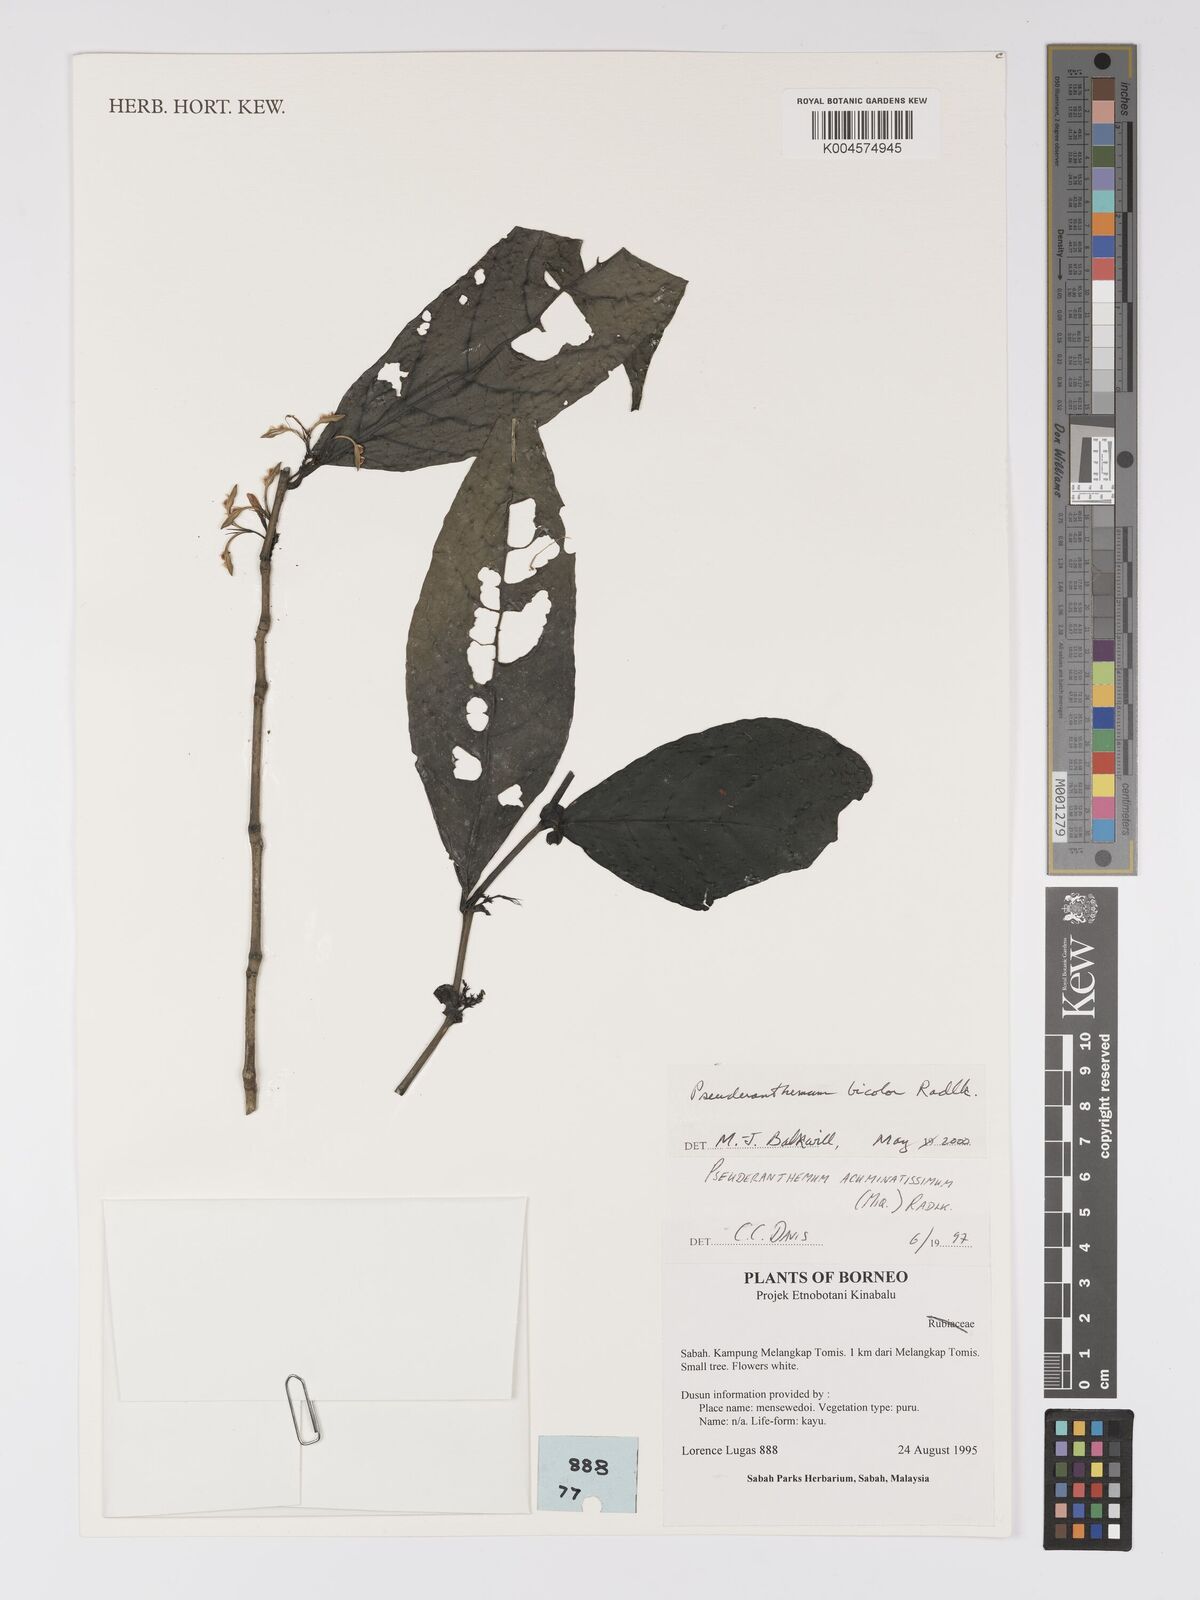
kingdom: Plantae
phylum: Tracheophyta
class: Magnoliopsida
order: Lamiales
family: Acanthaceae
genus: Pseuderanthemum
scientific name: Pseuderanthemum
